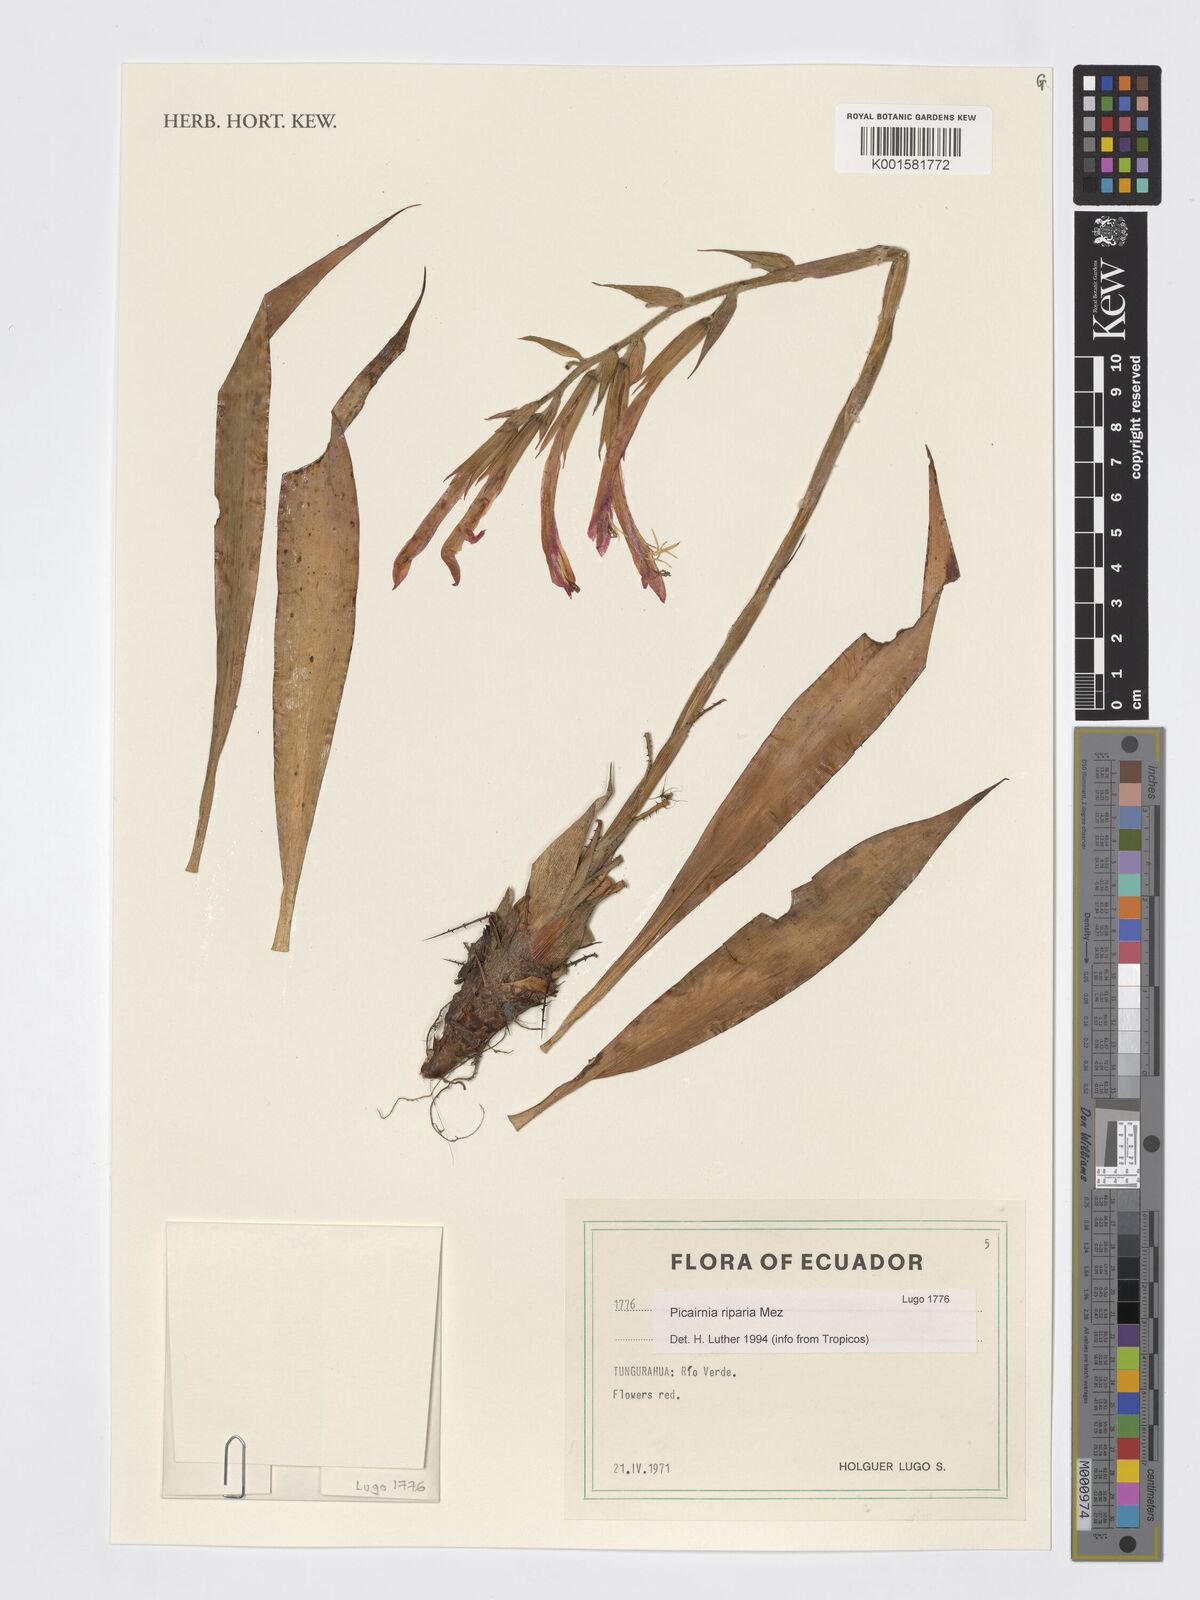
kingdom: Plantae
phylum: Tracheophyta
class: Liliopsida
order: Poales
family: Bromeliaceae
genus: Pitcairnia
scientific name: Pitcairnia riparia
